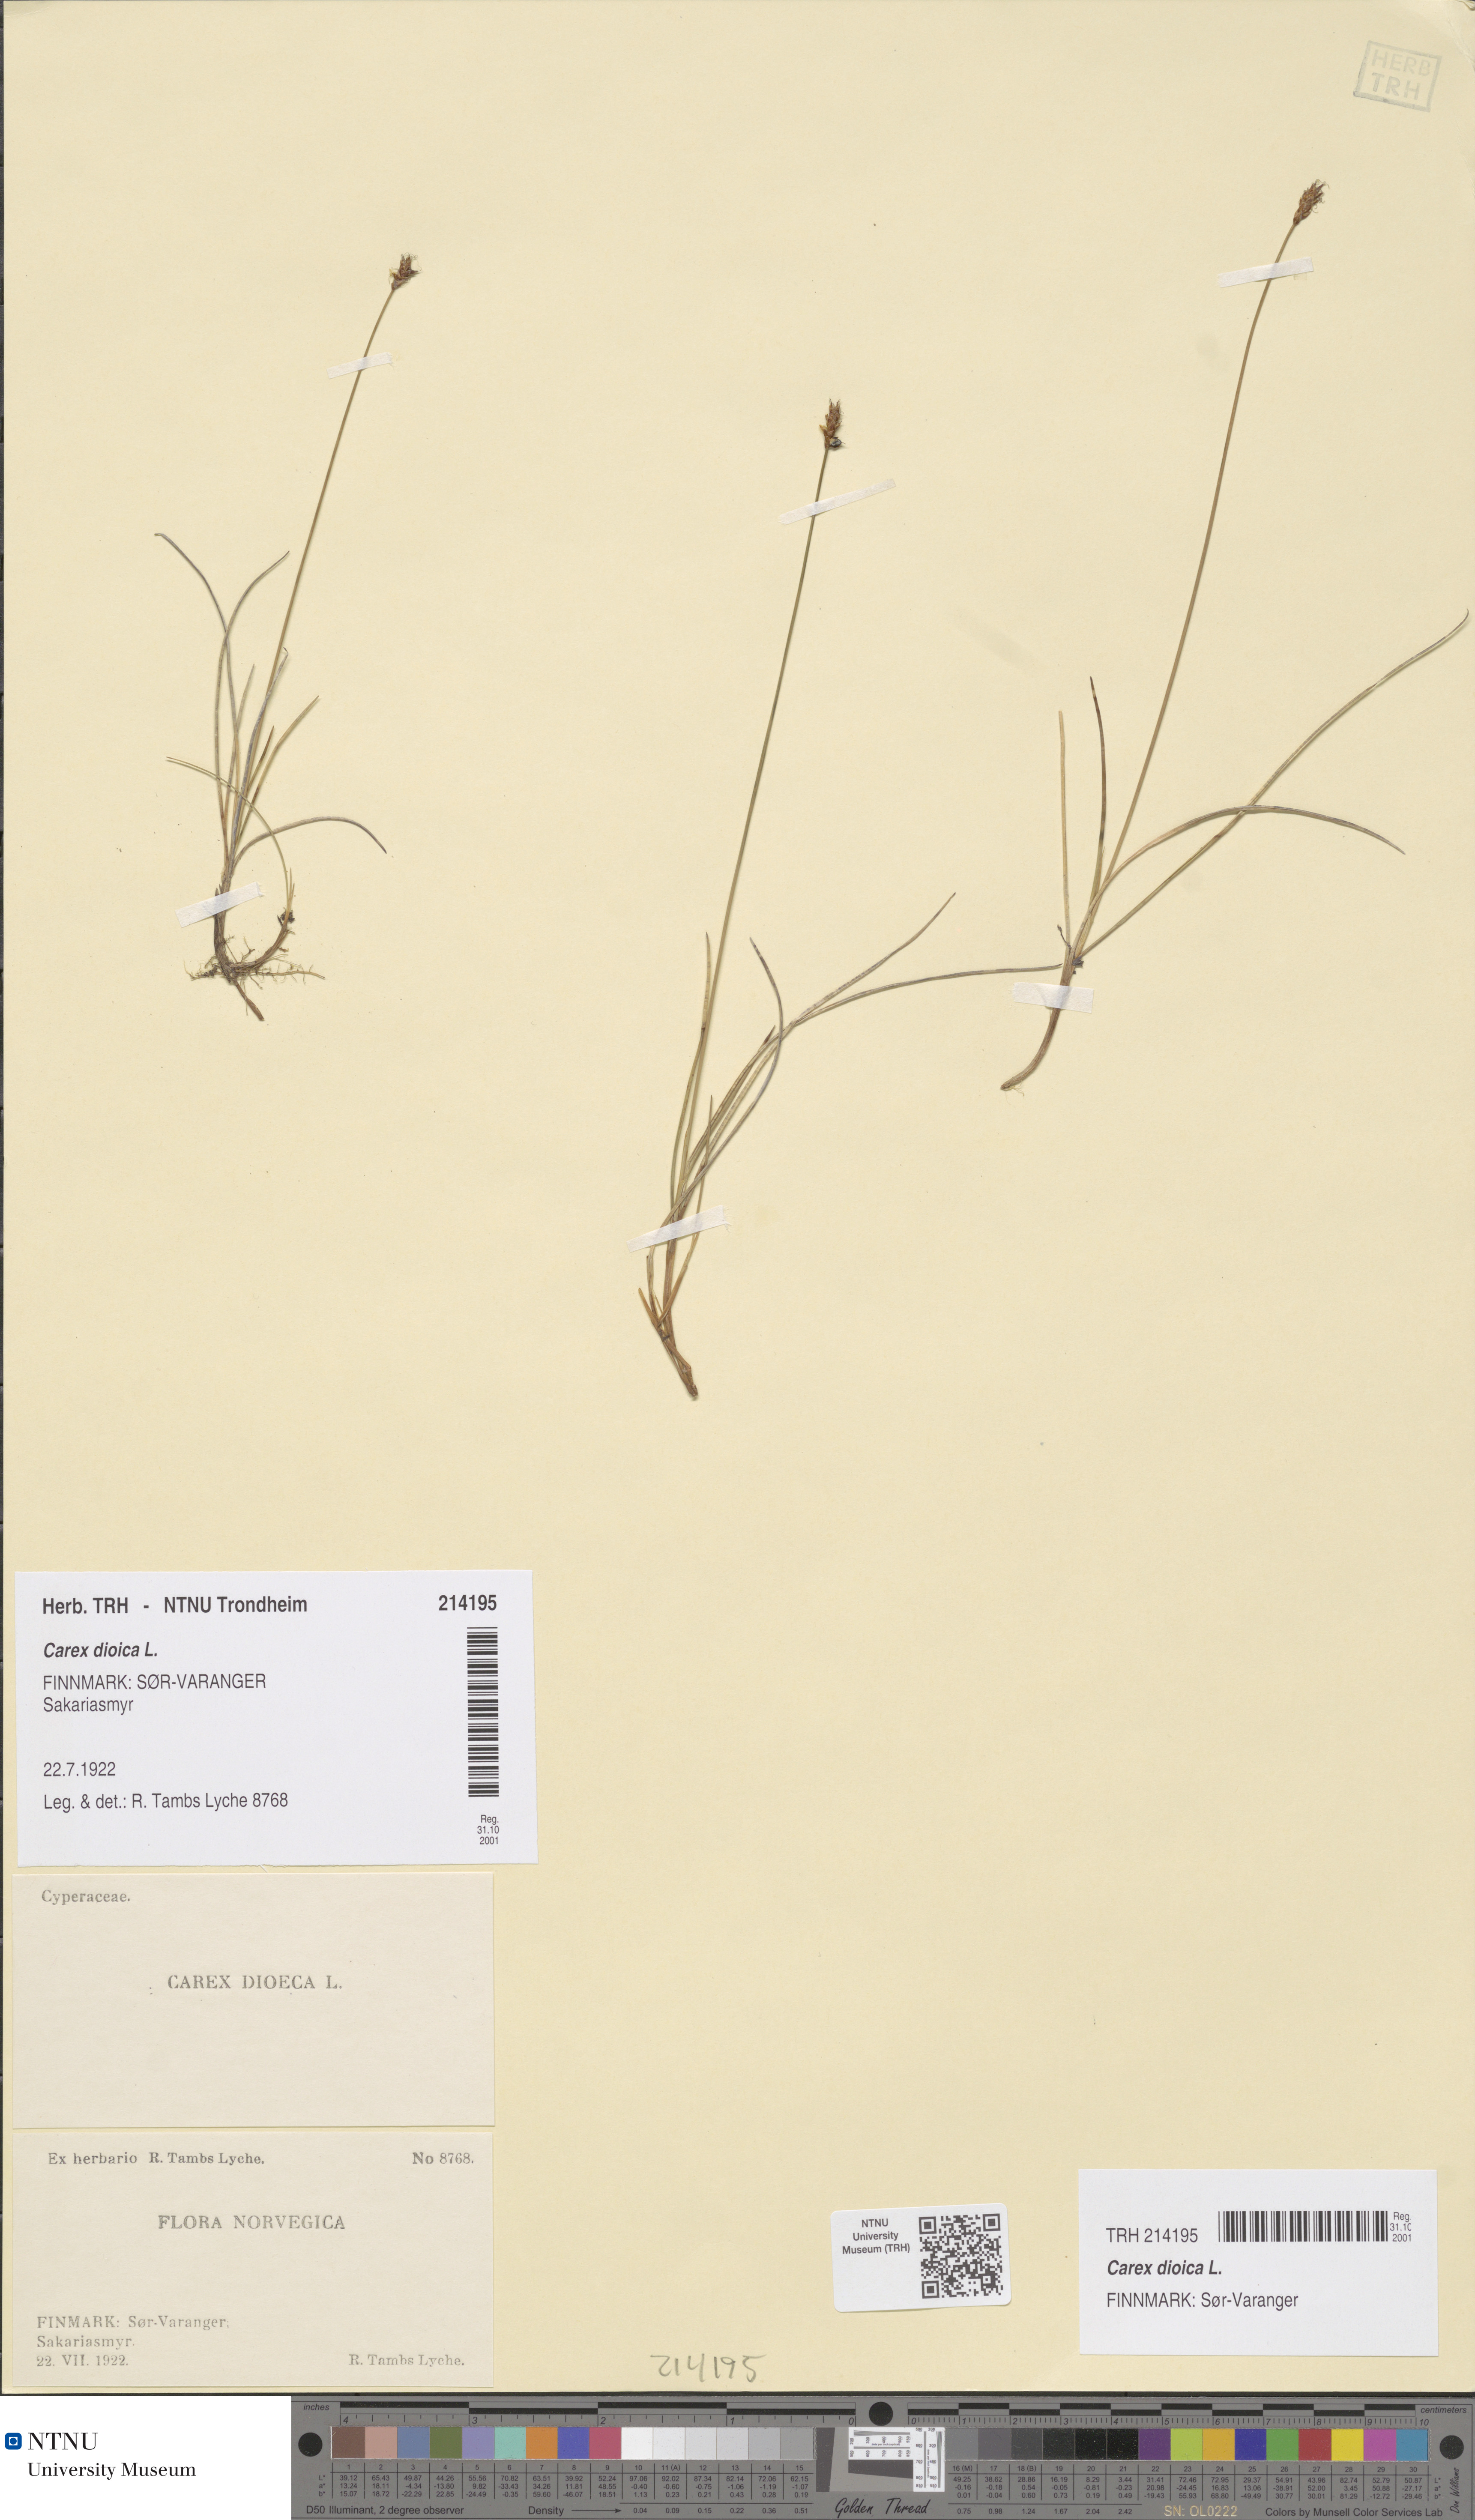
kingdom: Plantae
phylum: Tracheophyta
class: Liliopsida
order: Poales
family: Cyperaceae
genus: Carex
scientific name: Carex dioica
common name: Dioecious sedge
